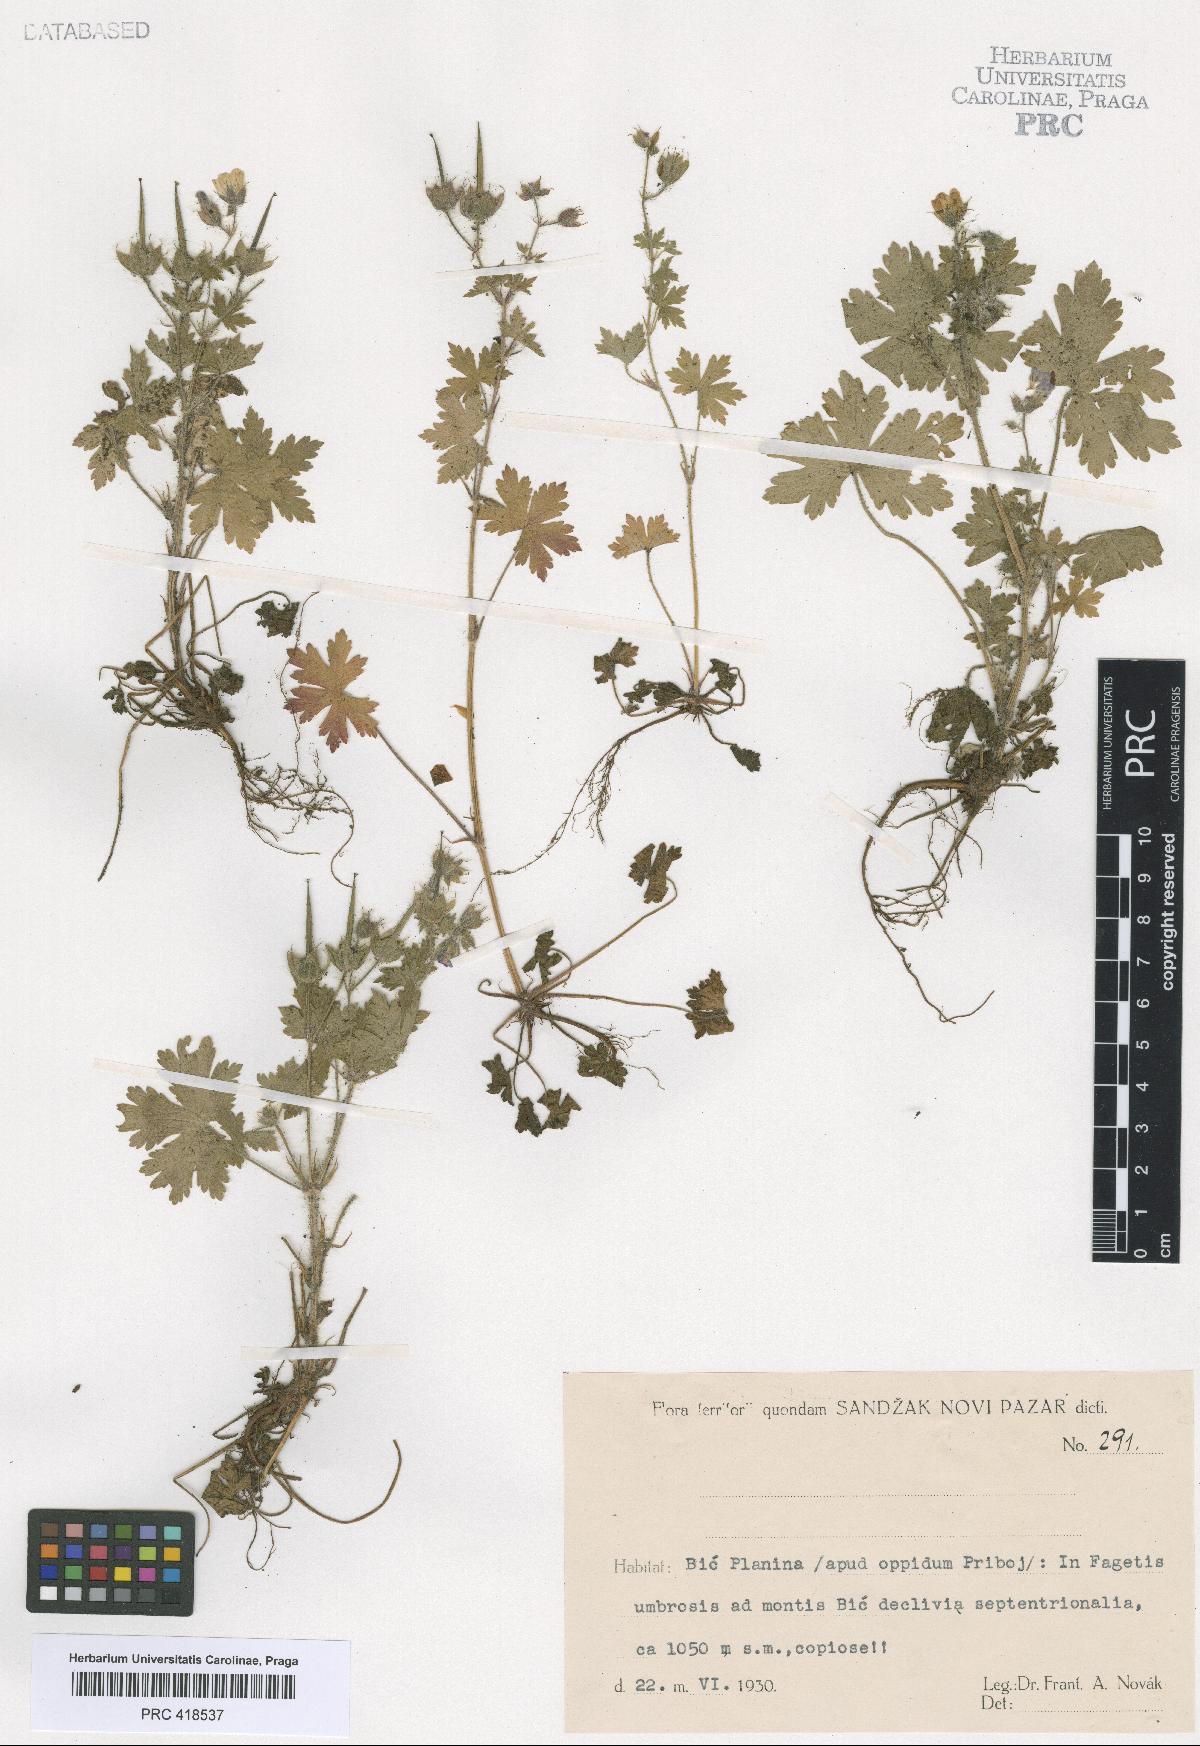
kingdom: Plantae
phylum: Tracheophyta
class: Magnoliopsida
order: Geraniales
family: Geraniaceae
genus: Geranium
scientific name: Geranium bohemicum
